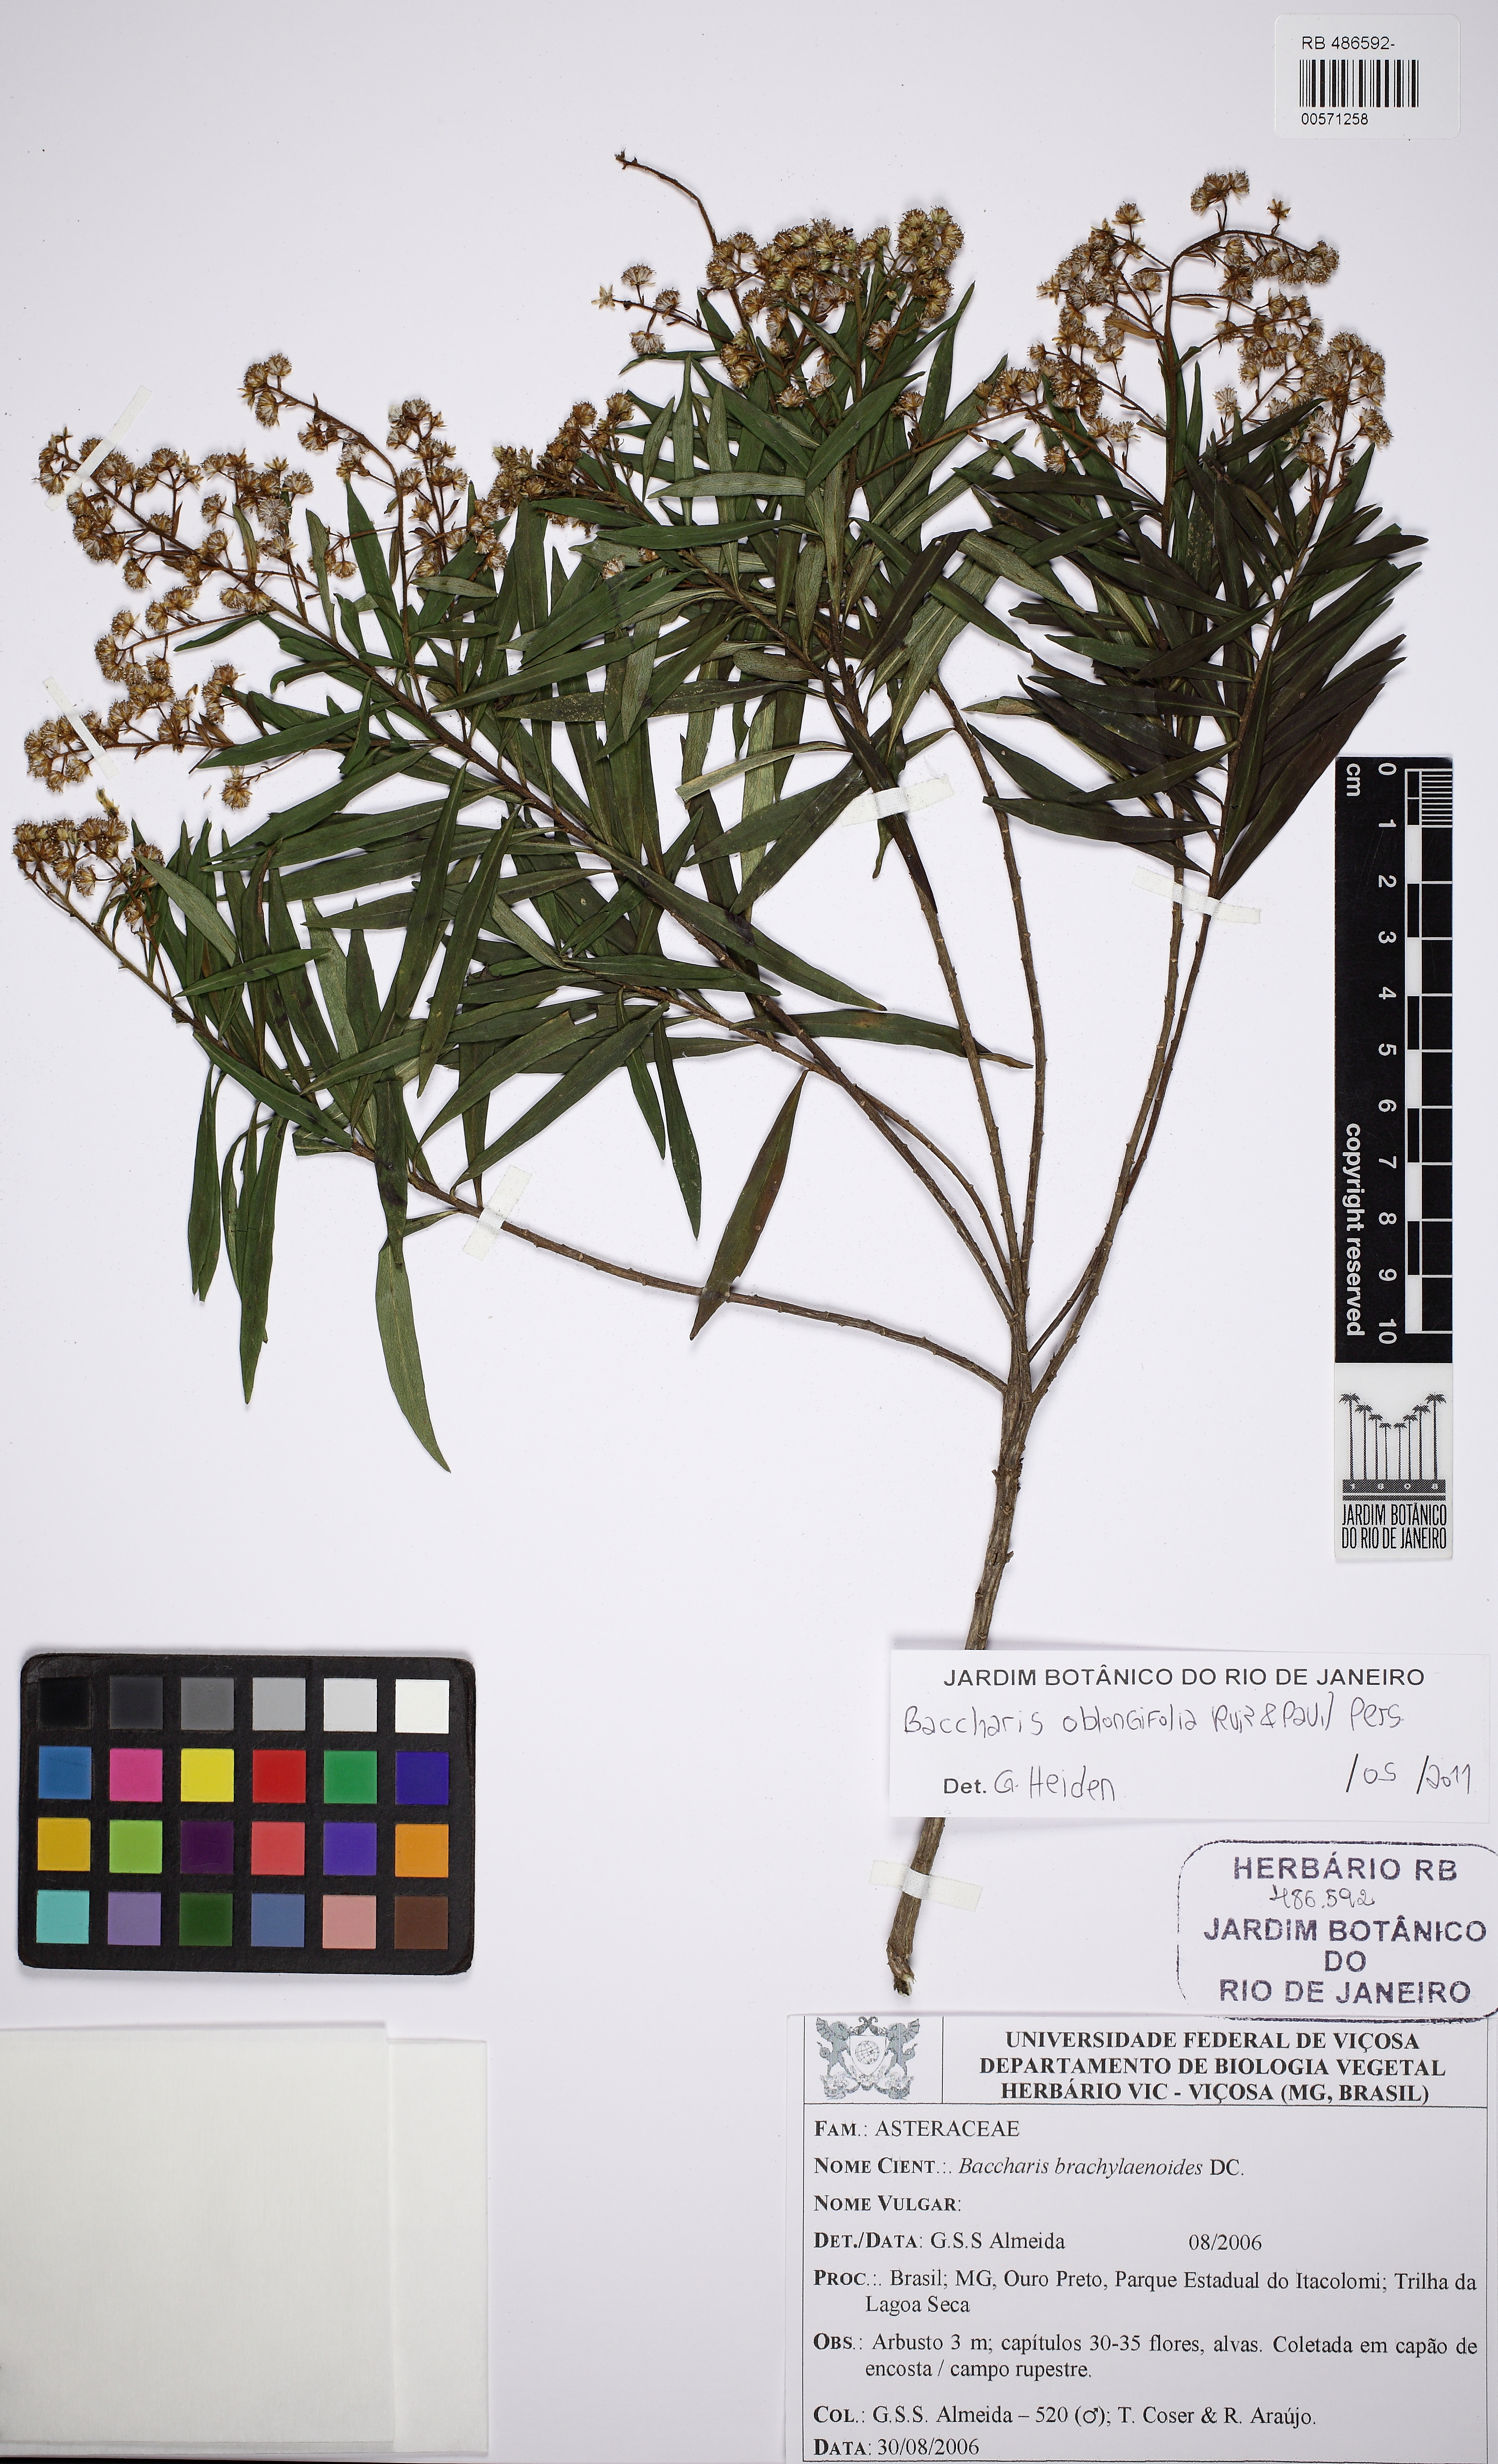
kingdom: Plantae
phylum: Tracheophyta
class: Magnoliopsida
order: Asterales
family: Asteraceae
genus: Baccharis
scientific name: Baccharis oblongifolia
